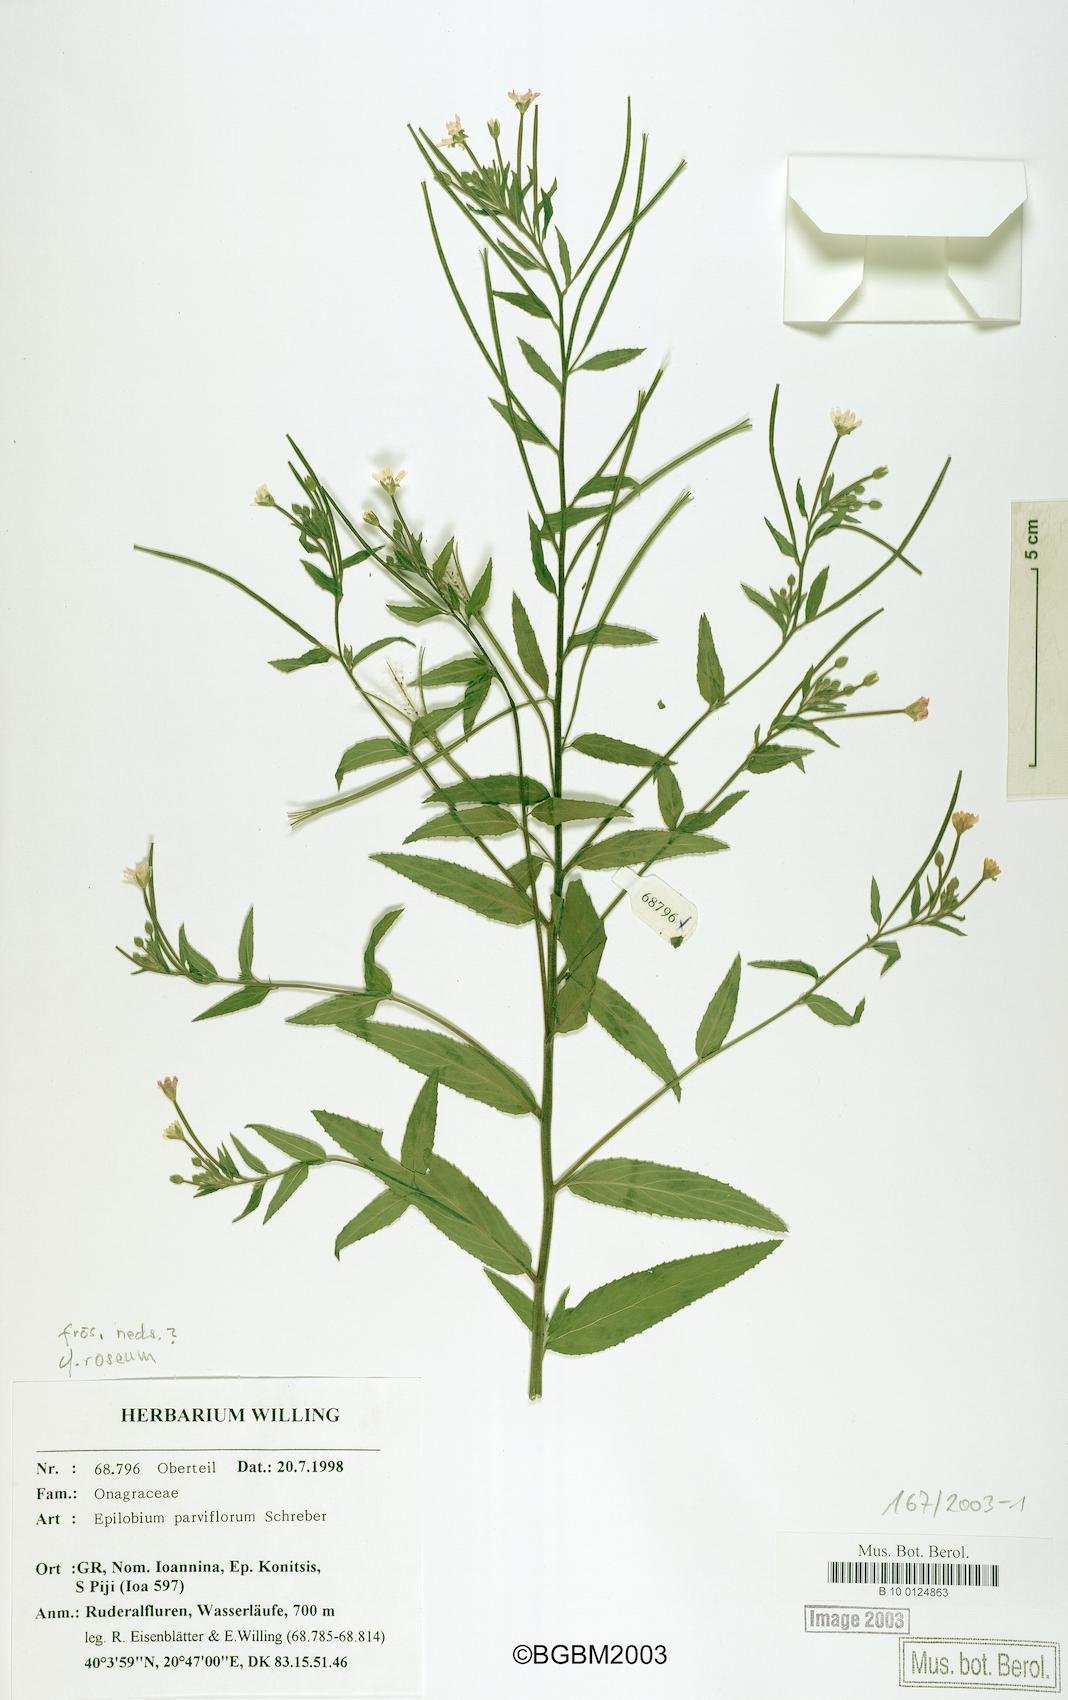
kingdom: Plantae
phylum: Tracheophyta
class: Magnoliopsida
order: Myrtales
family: Onagraceae
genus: Epilobium
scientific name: Epilobium parviflorum
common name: Hoary willowherb
